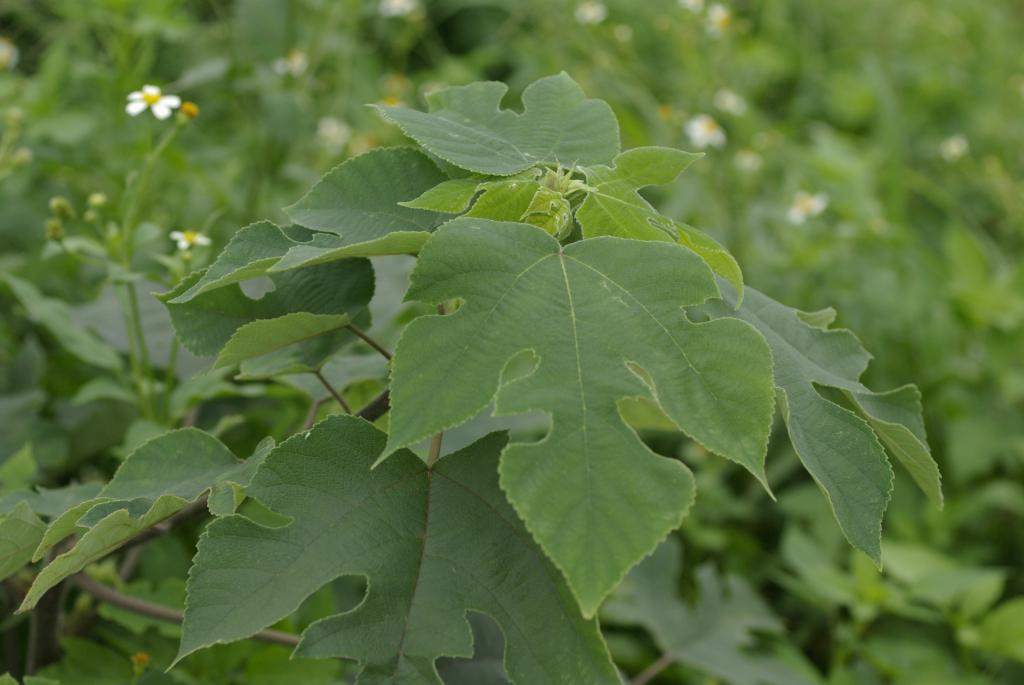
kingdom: Plantae
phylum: Tracheophyta
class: Magnoliopsida
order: Rosales
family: Moraceae
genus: Broussonetia
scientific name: Broussonetia papyrifera
